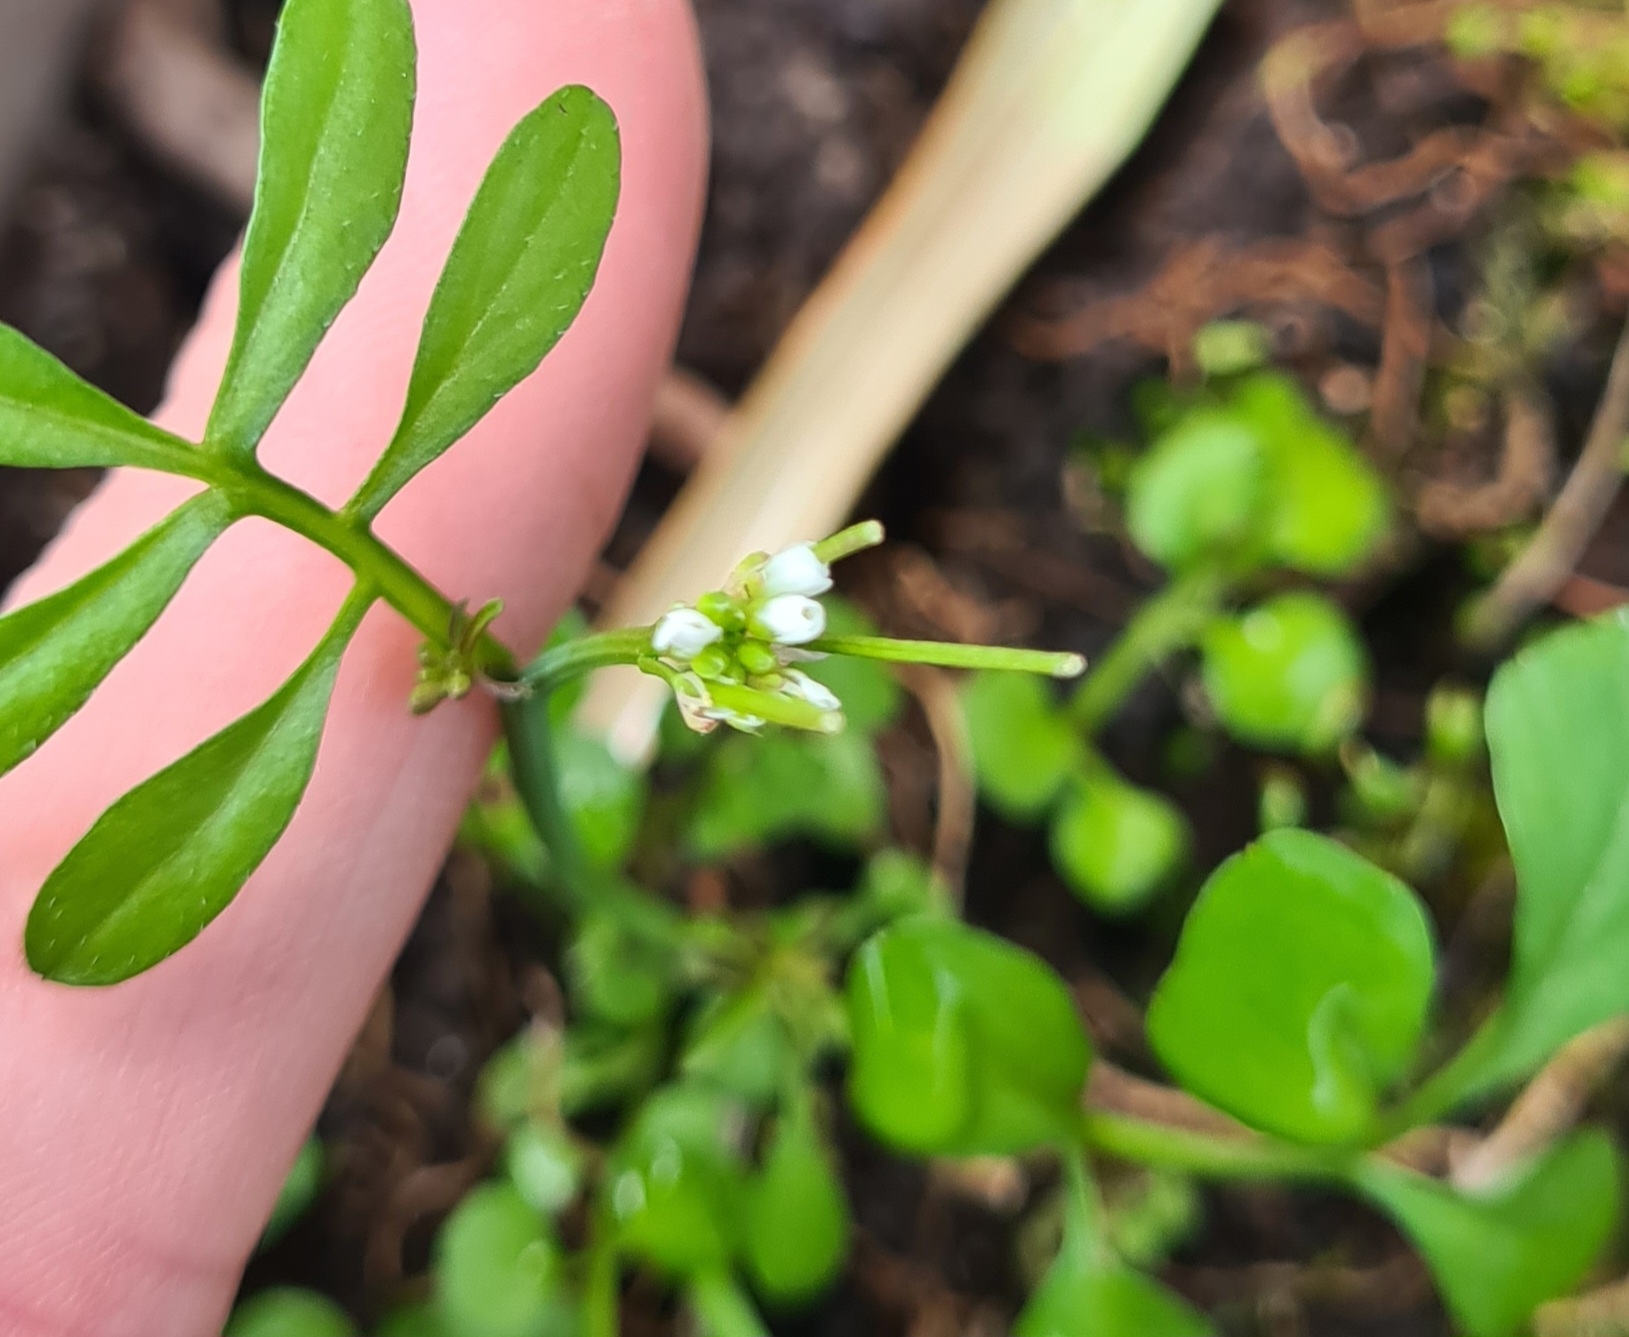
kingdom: Plantae
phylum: Tracheophyta
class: Magnoliopsida
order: Brassicales
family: Brassicaceae
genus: Cardamine
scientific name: Cardamine hirsuta
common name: Roset-springklap
